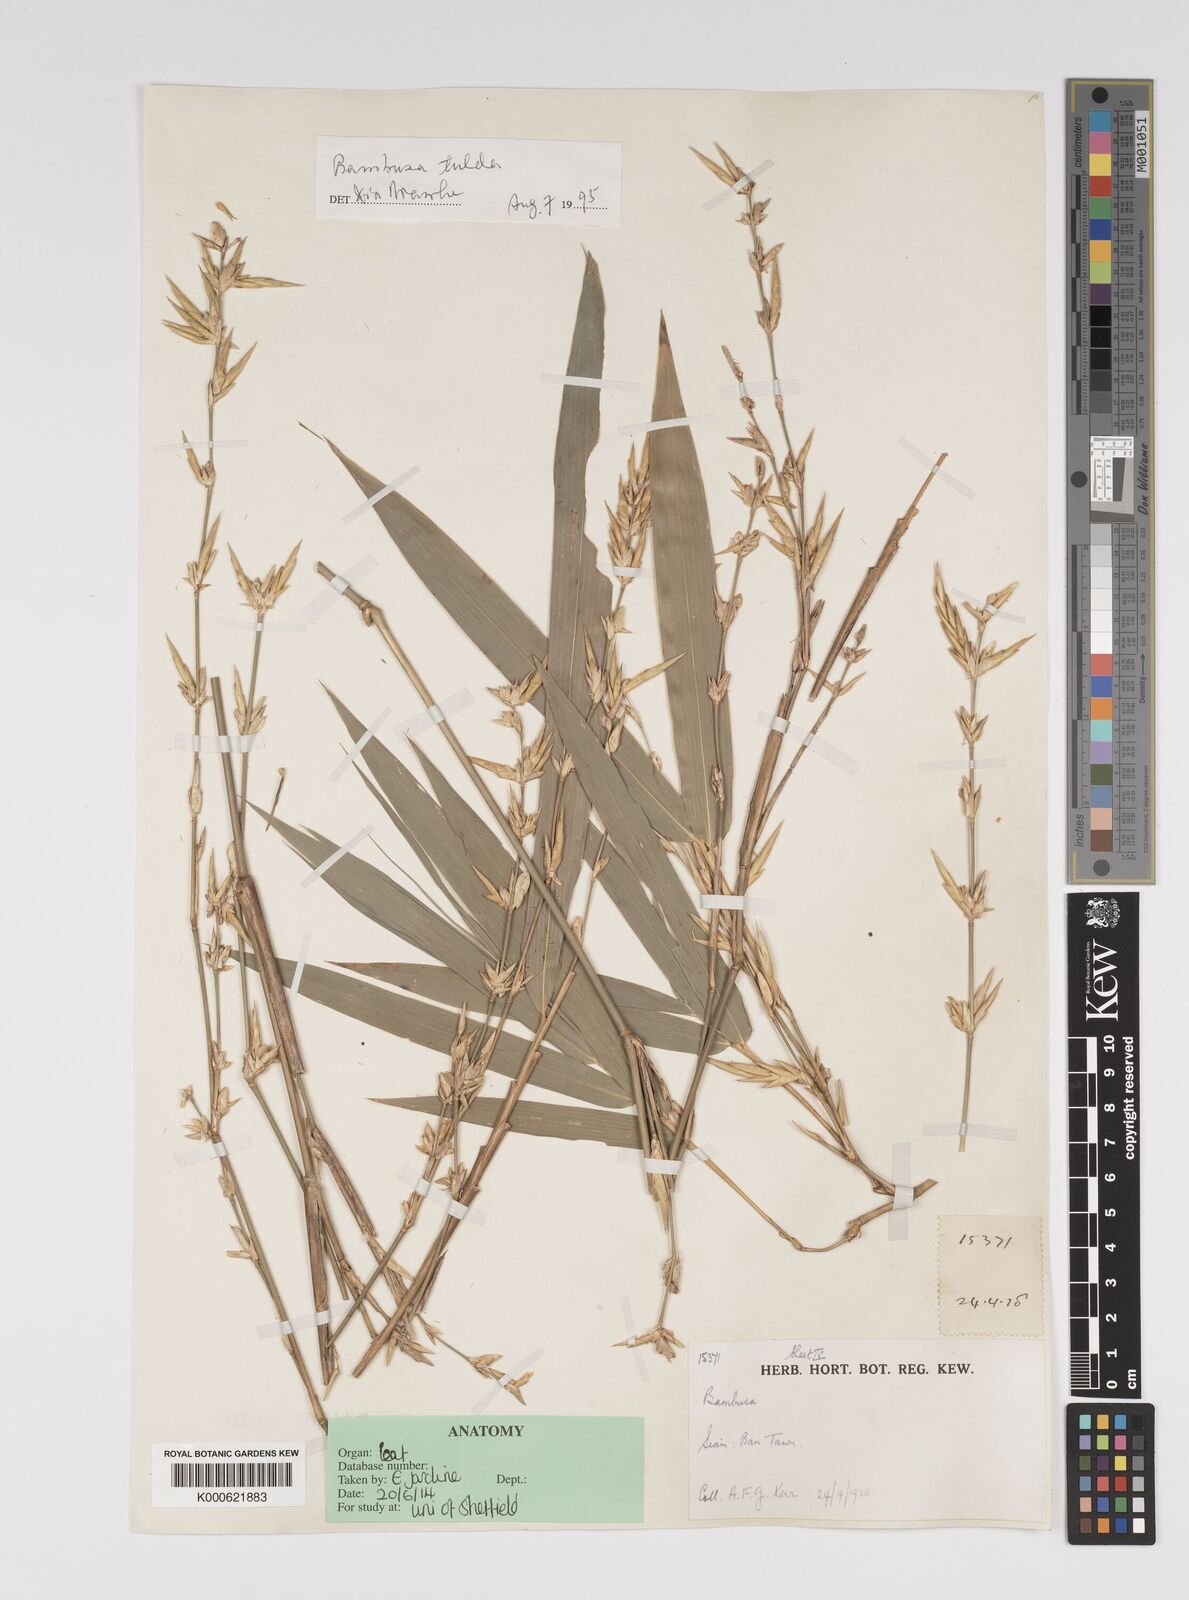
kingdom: Plantae
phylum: Tracheophyta
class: Liliopsida
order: Poales
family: Poaceae
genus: Bambusa
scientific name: Bambusa tulda
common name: Bengal bamboo
